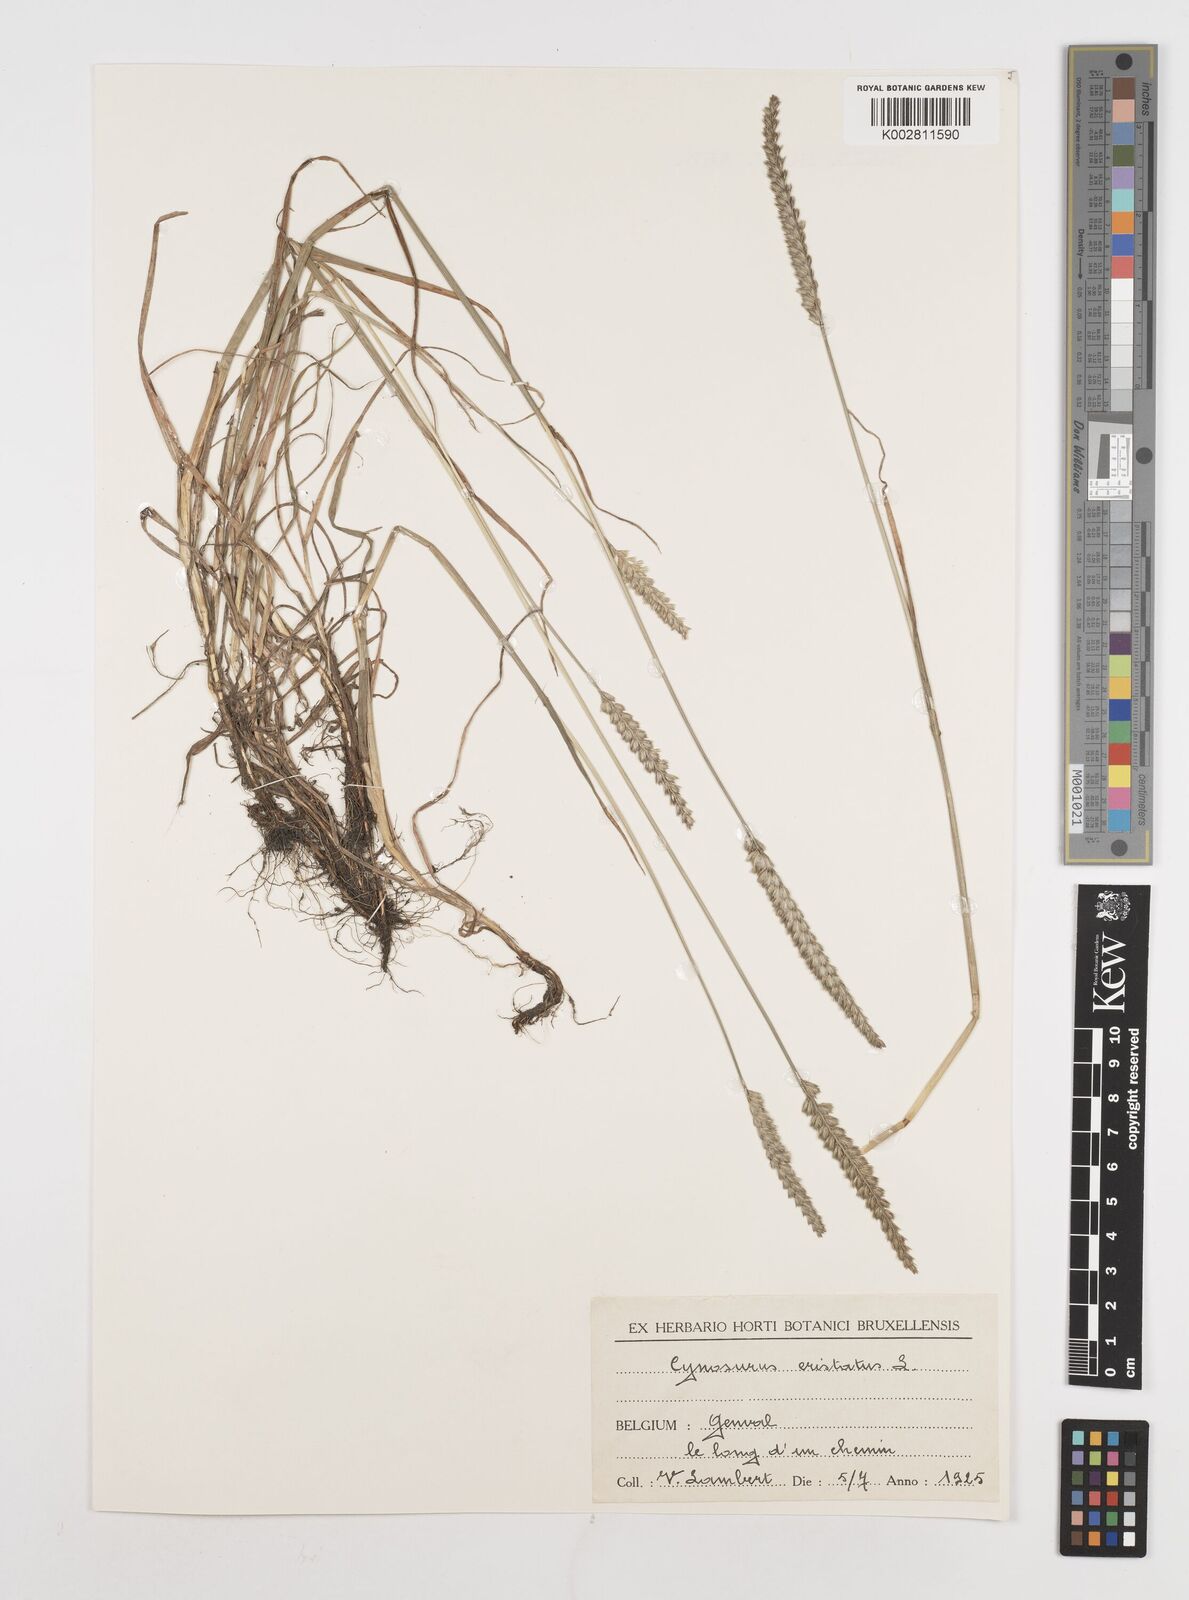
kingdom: Plantae
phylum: Tracheophyta
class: Liliopsida
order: Poales
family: Poaceae
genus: Cynosurus
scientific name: Cynosurus cristatus
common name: Crested dog's-tail
